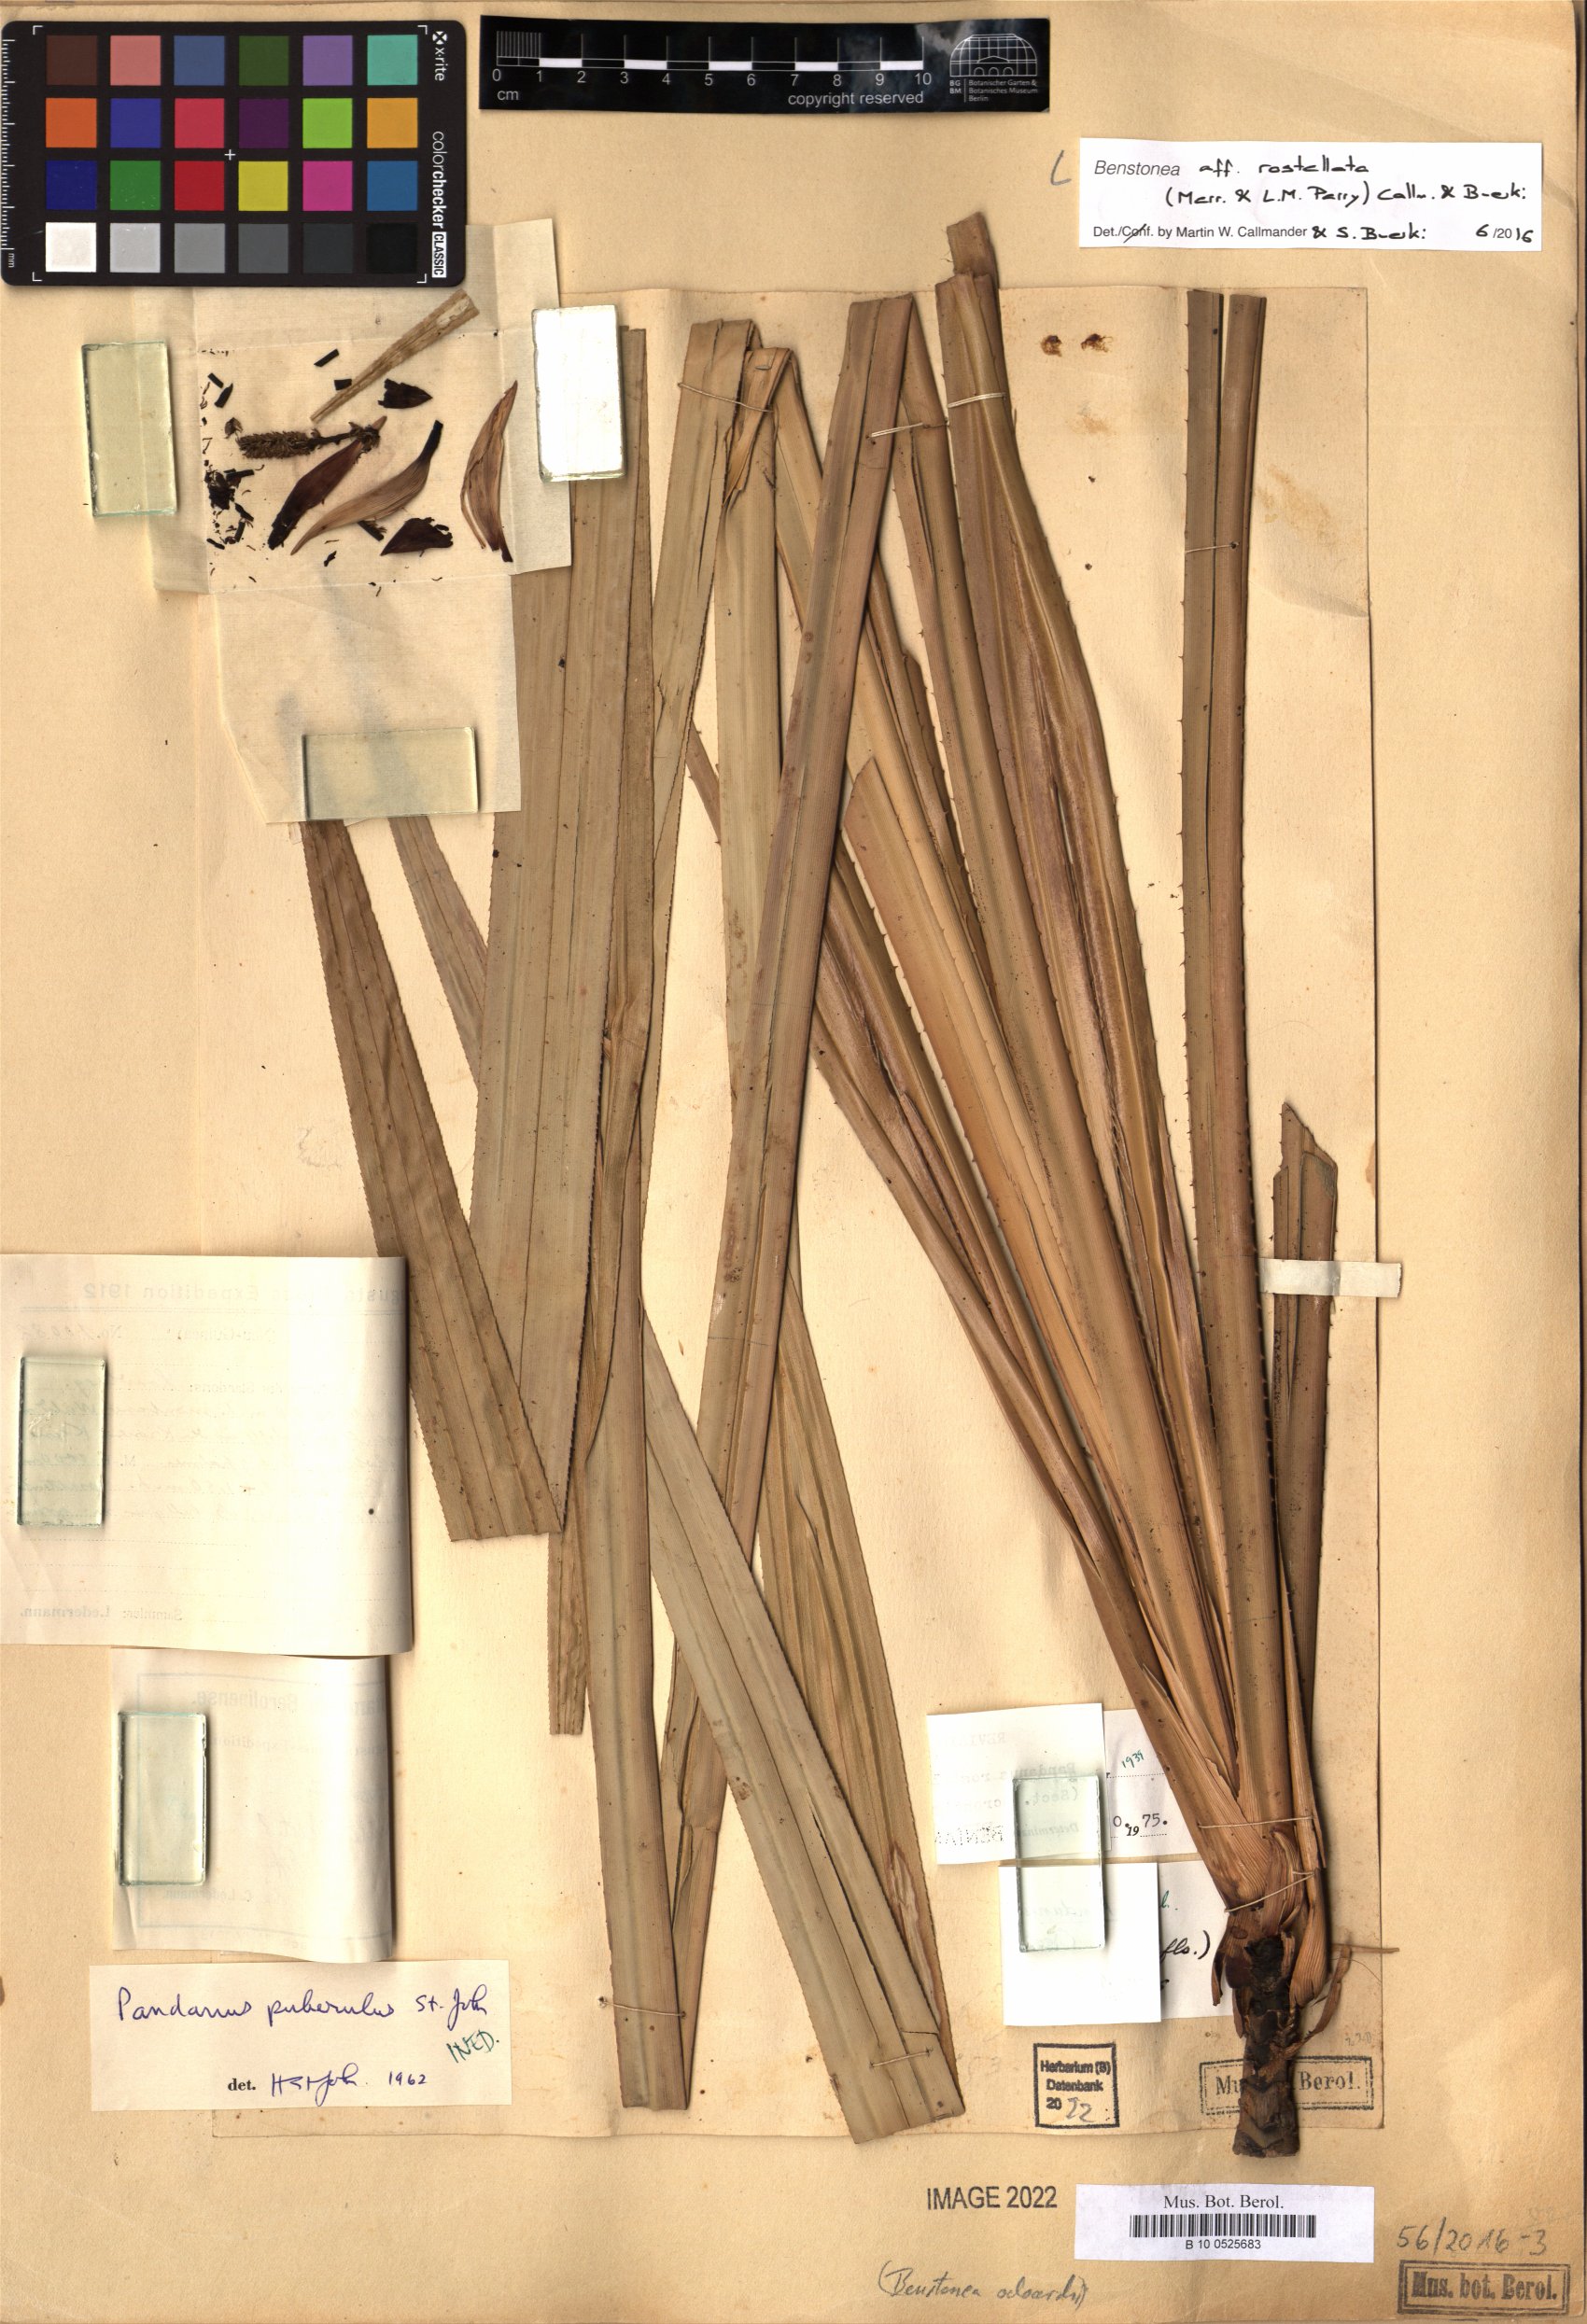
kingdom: Plantae
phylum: Tracheophyta
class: Liliopsida
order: Pandanales
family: Pandanaceae
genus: Benstonea
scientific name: Benstonea rostellata
